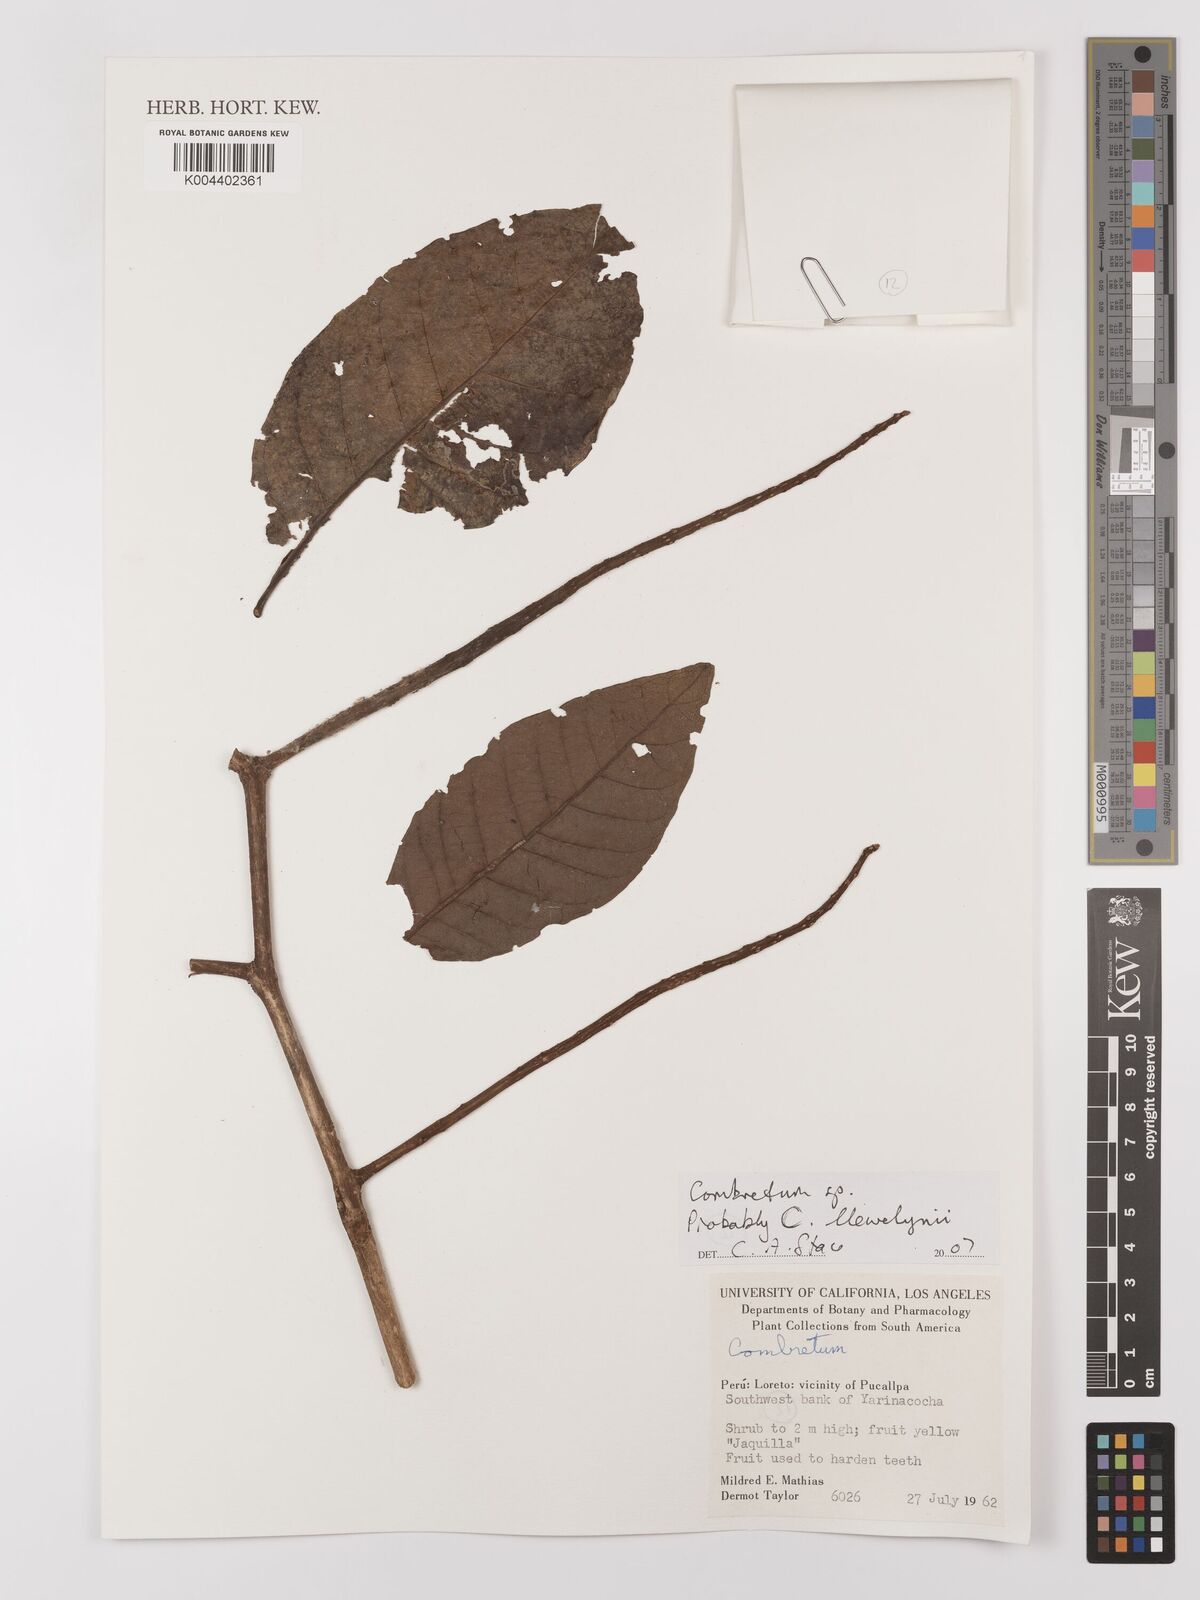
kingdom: Plantae
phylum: Tracheophyta
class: Magnoliopsida
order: Myrtales
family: Combretaceae
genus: Combretum
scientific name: Combretum llewelynii
